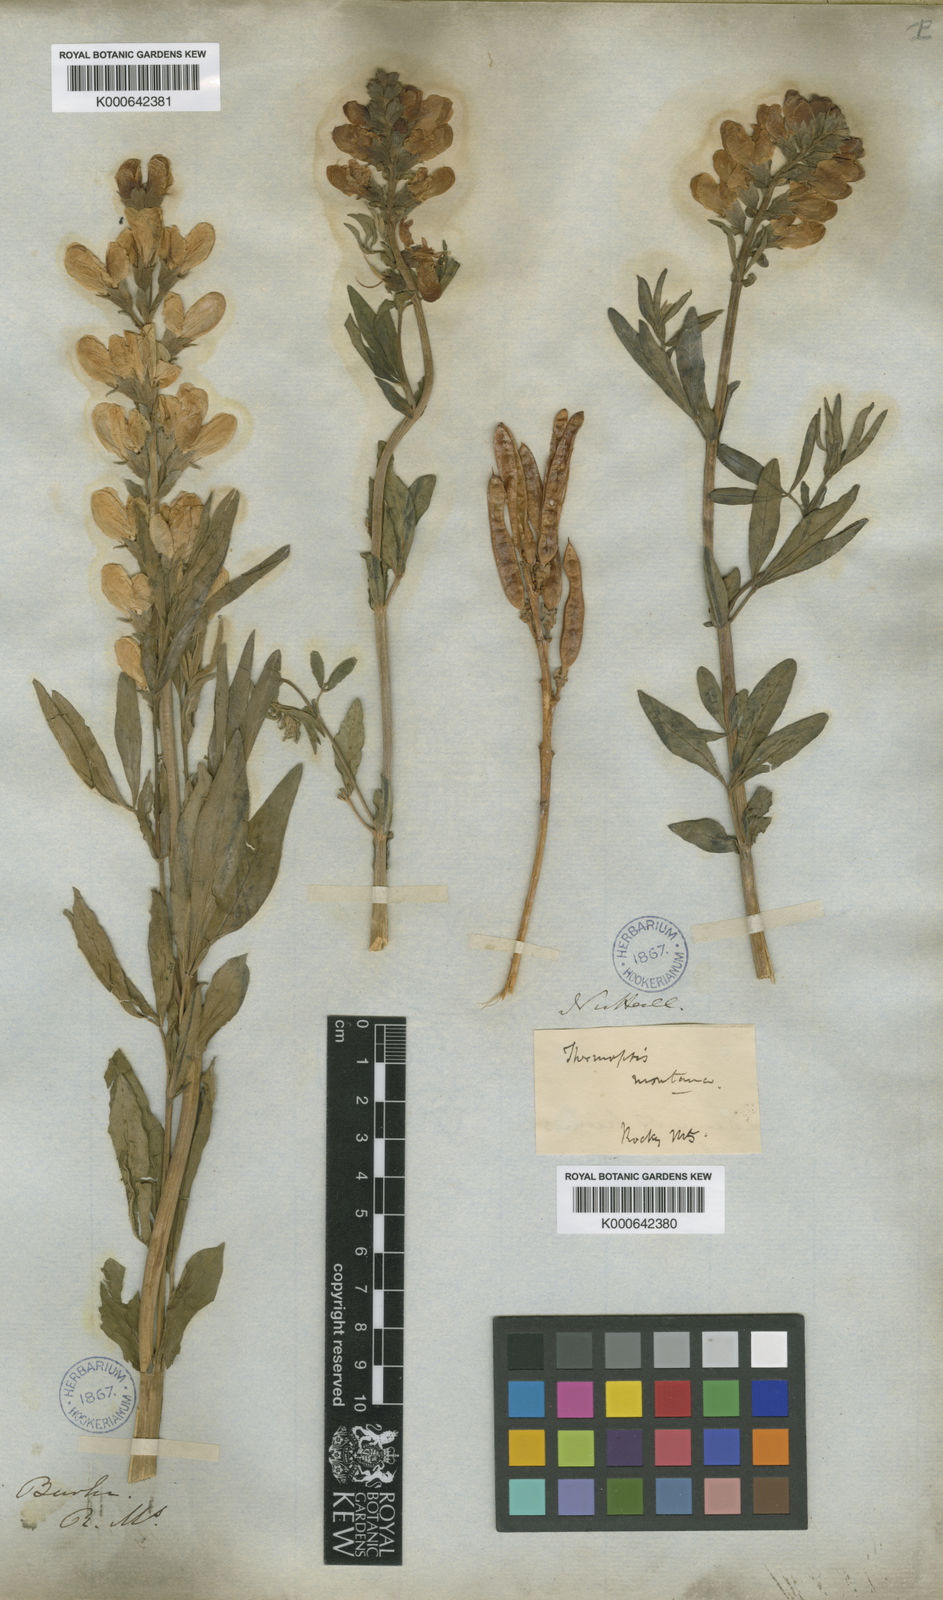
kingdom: Plantae
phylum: Tracheophyta
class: Magnoliopsida
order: Fabales
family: Fabaceae
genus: Thermopsis
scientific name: Thermopsis montana
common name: False lupin
